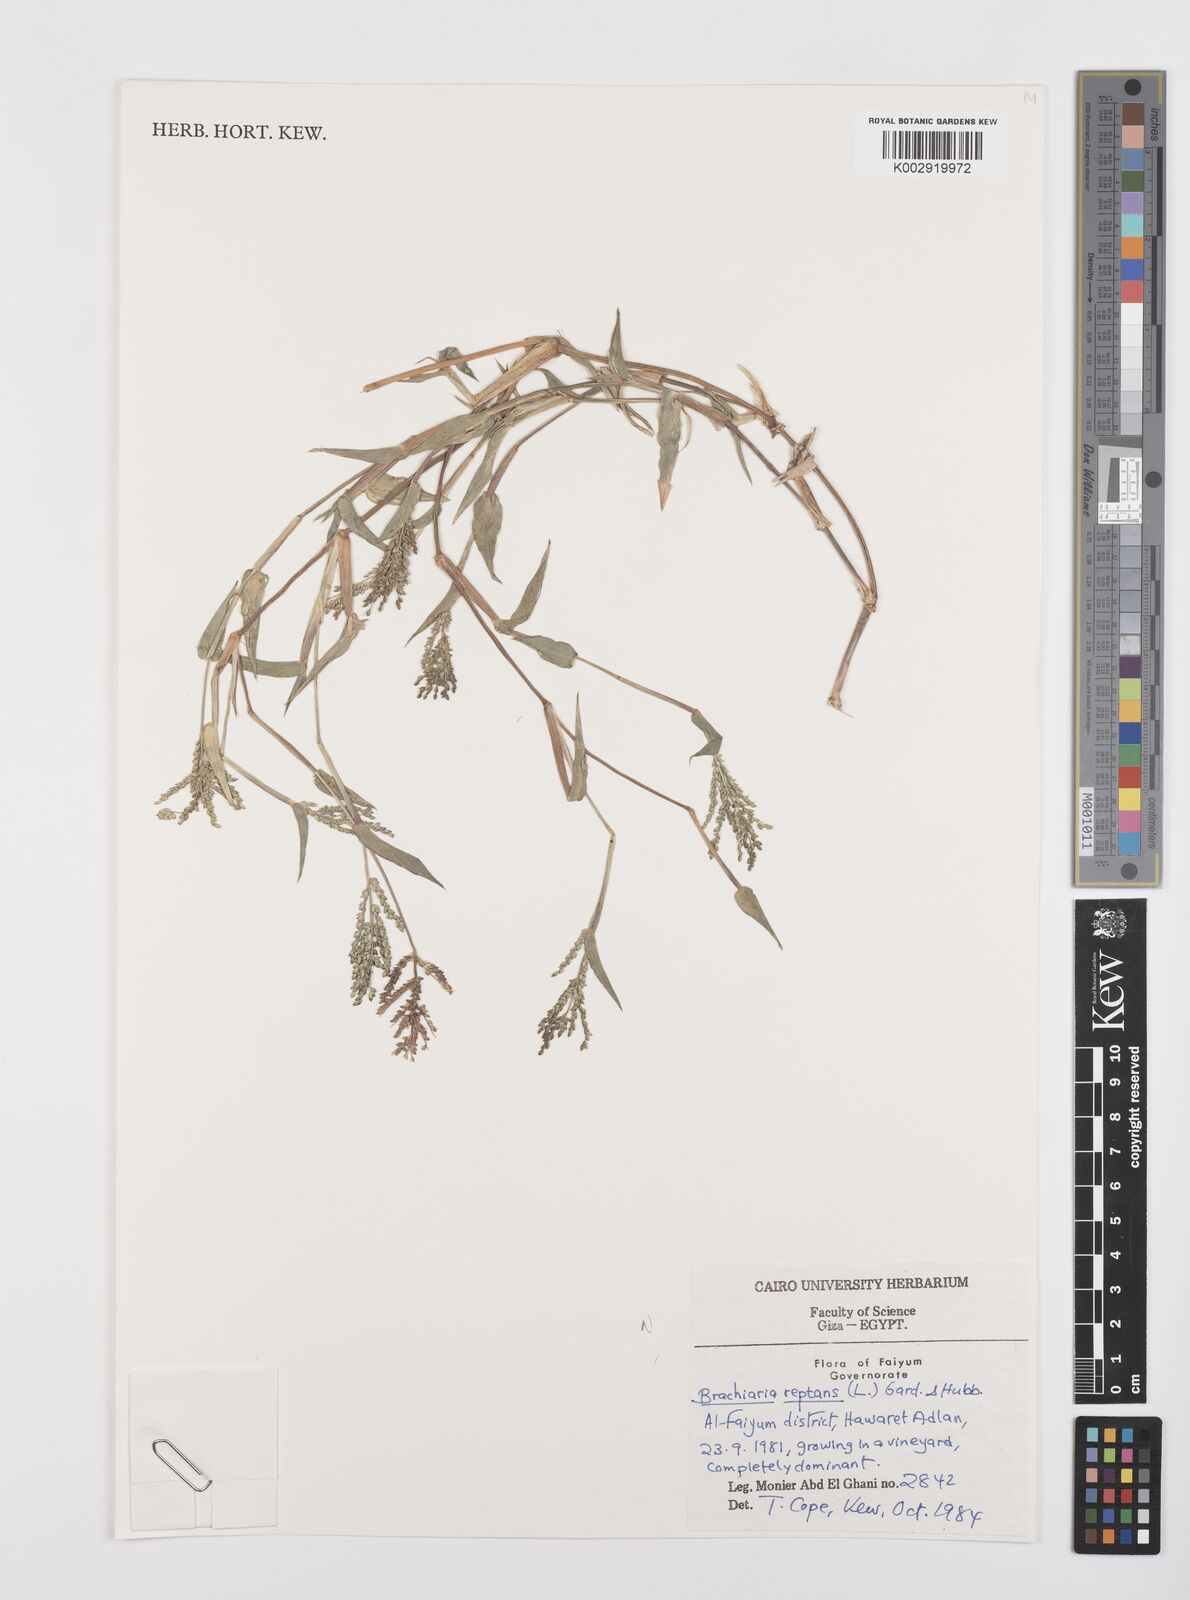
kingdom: Plantae
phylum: Tracheophyta
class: Liliopsida
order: Poales
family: Poaceae
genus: Urochloa
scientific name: Urochloa reptans
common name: Sprawling signalgrass
